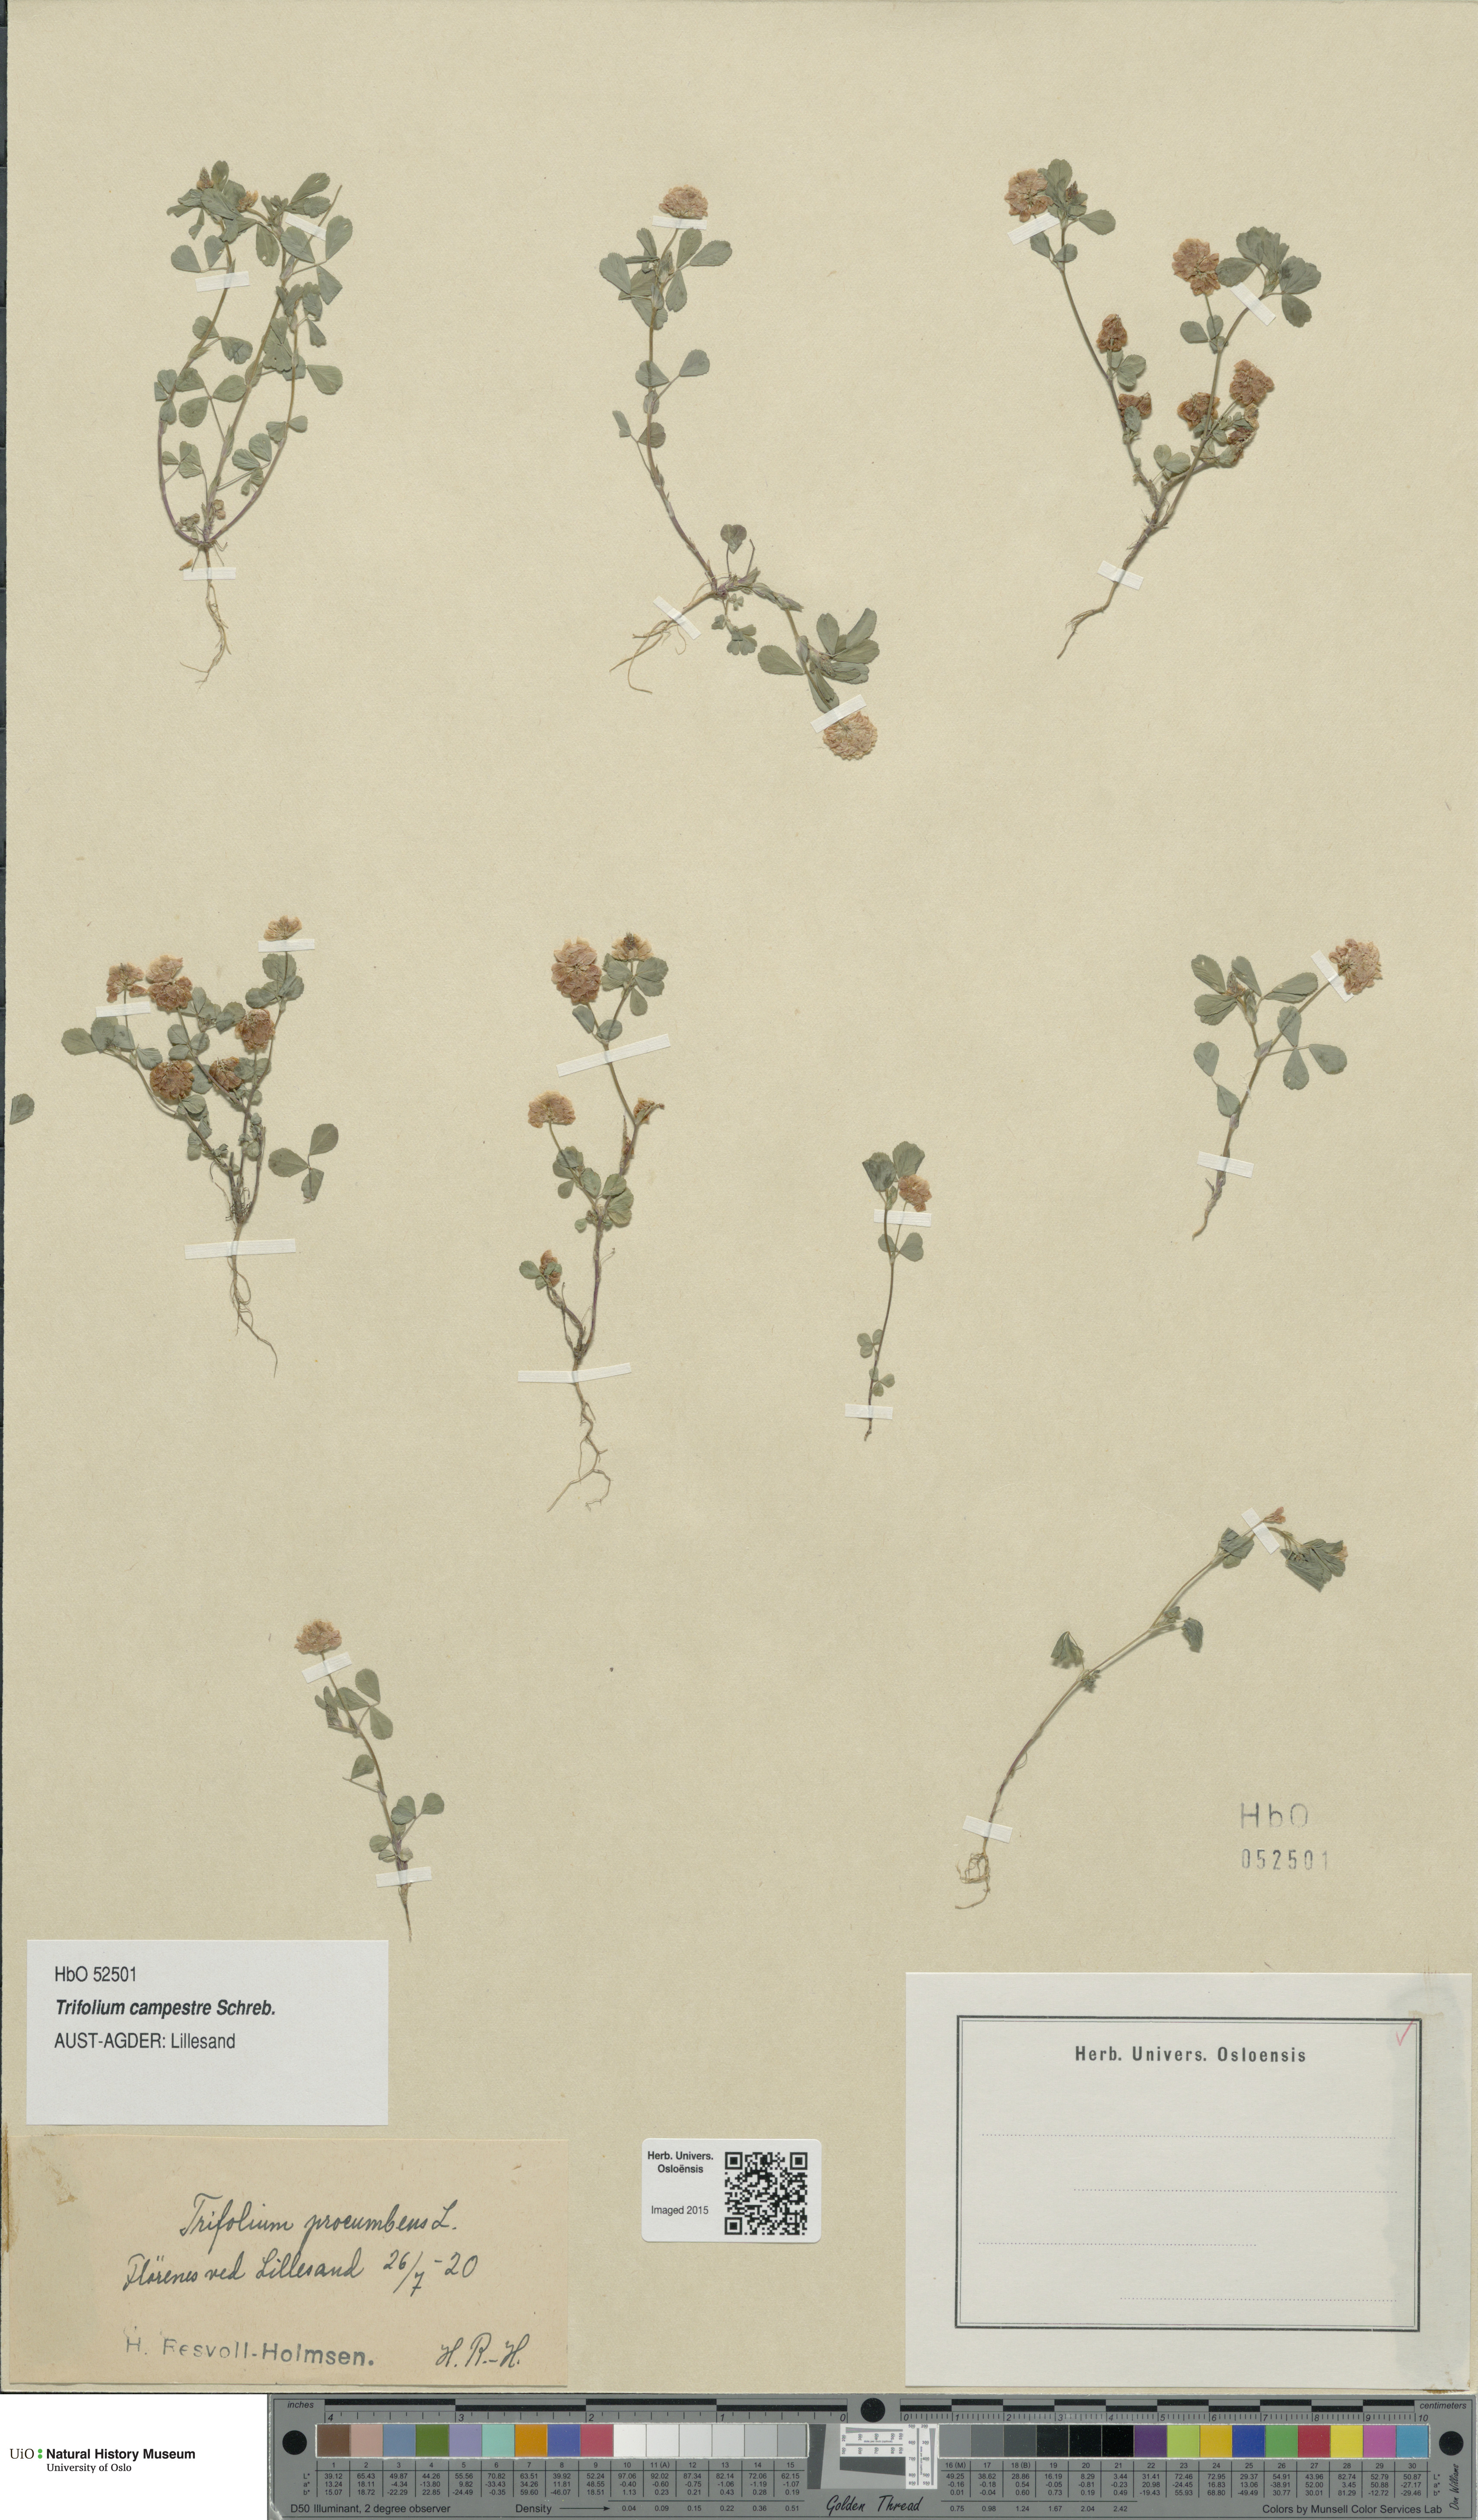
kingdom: Plantae
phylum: Tracheophyta
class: Magnoliopsida
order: Fabales
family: Fabaceae
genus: Trifolium
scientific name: Trifolium campestre
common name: Field clover
